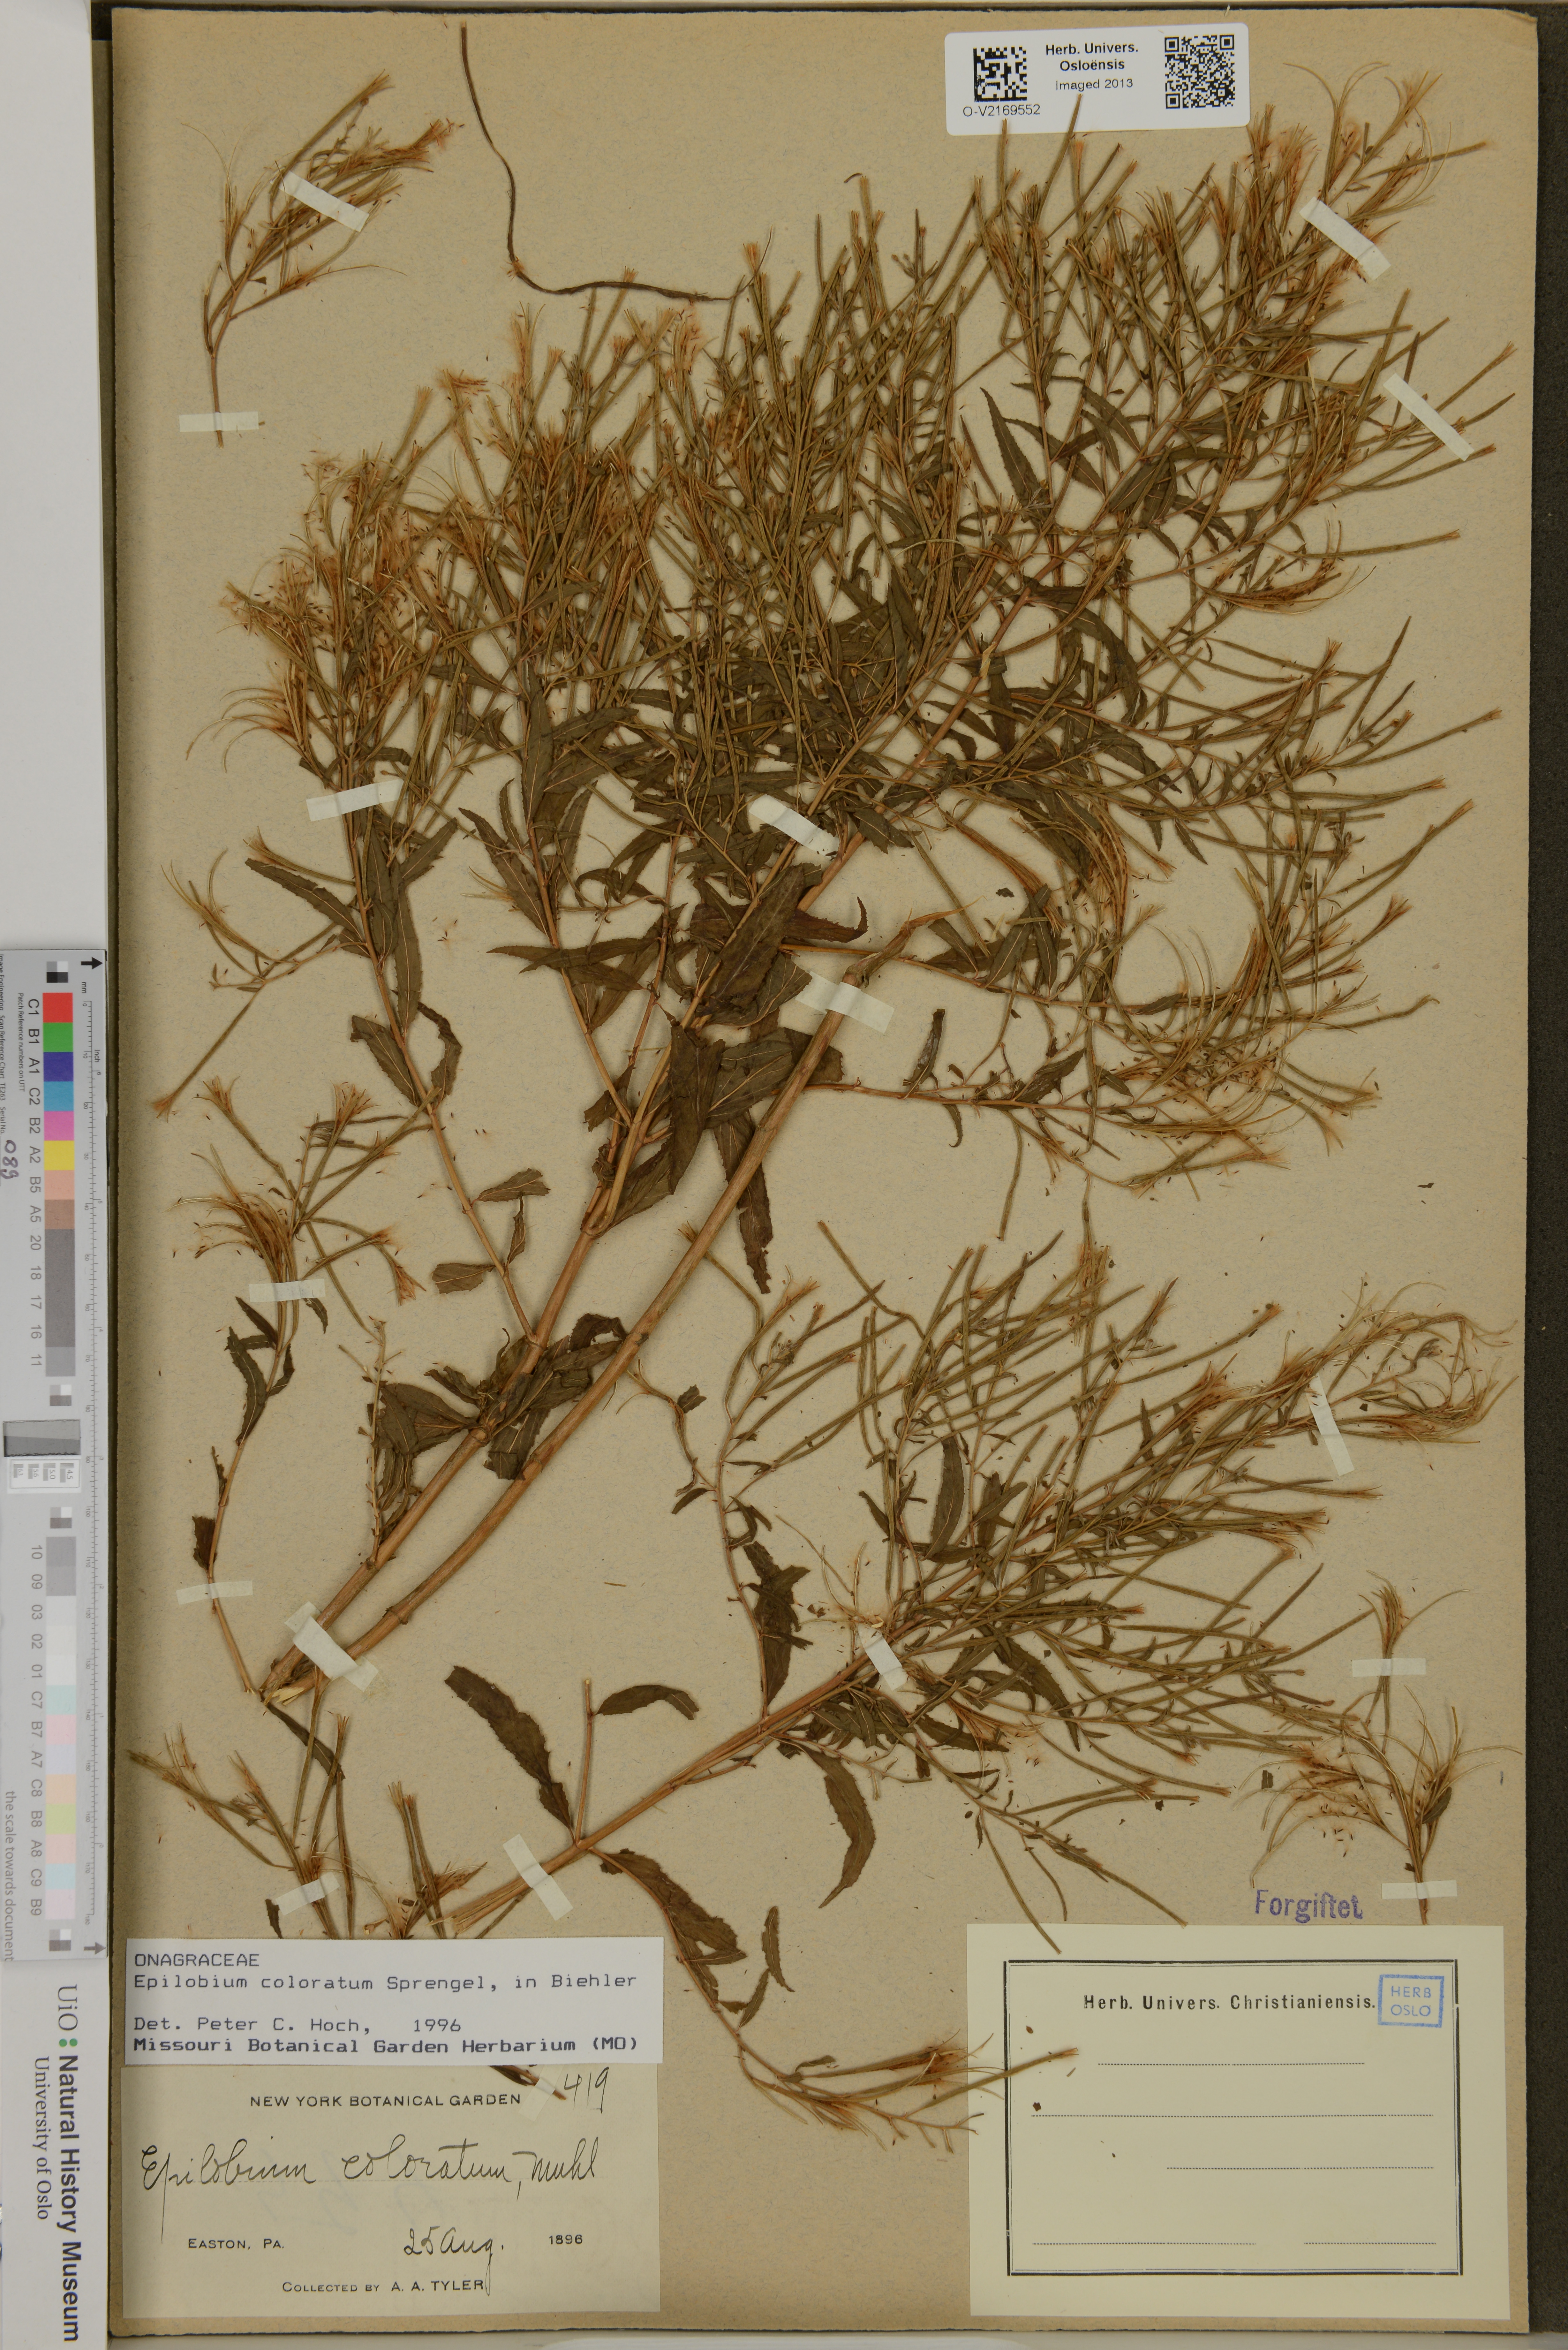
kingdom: Plantae
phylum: Tracheophyta
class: Magnoliopsida
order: Myrtales
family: Onagraceae
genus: Epilobium
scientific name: Epilobium coloratum
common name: Bronze willowherb
